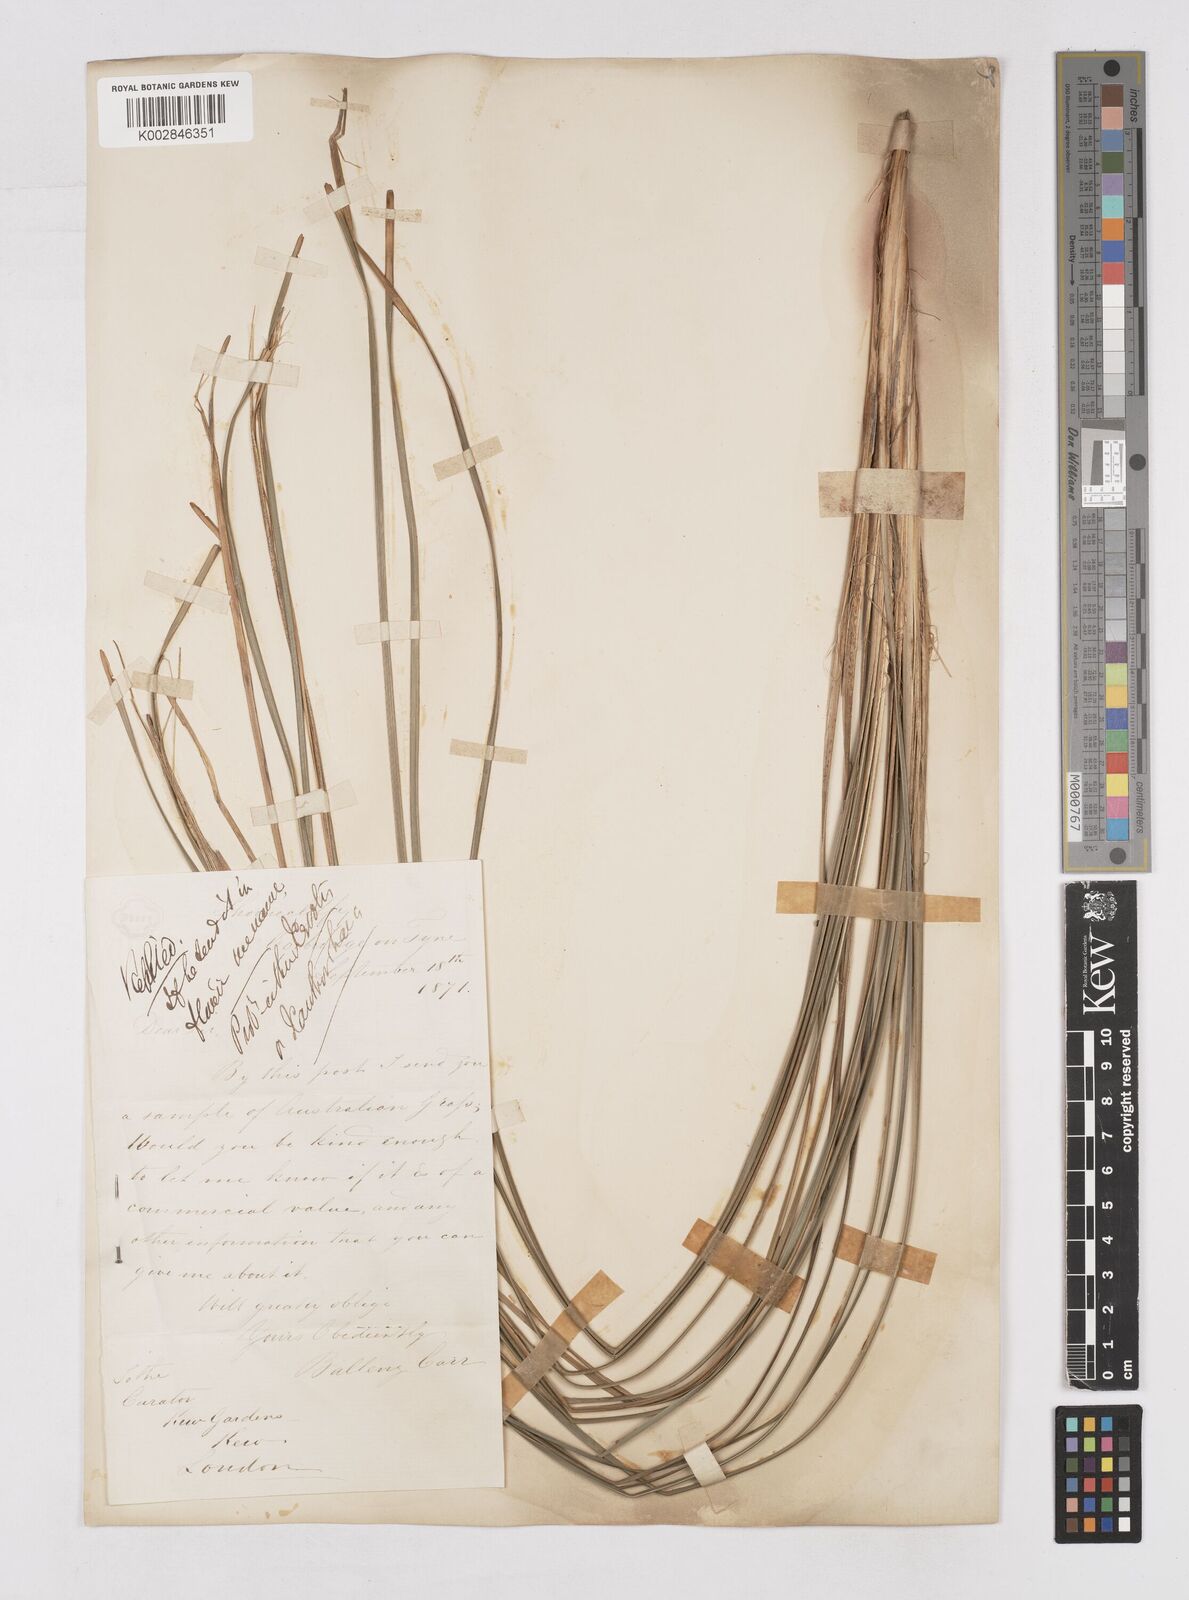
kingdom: Plantae
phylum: Tracheophyta
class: Liliopsida
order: Asparagales
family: Asphodelaceae
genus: Xanthorrhoea
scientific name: Xanthorrhoea
